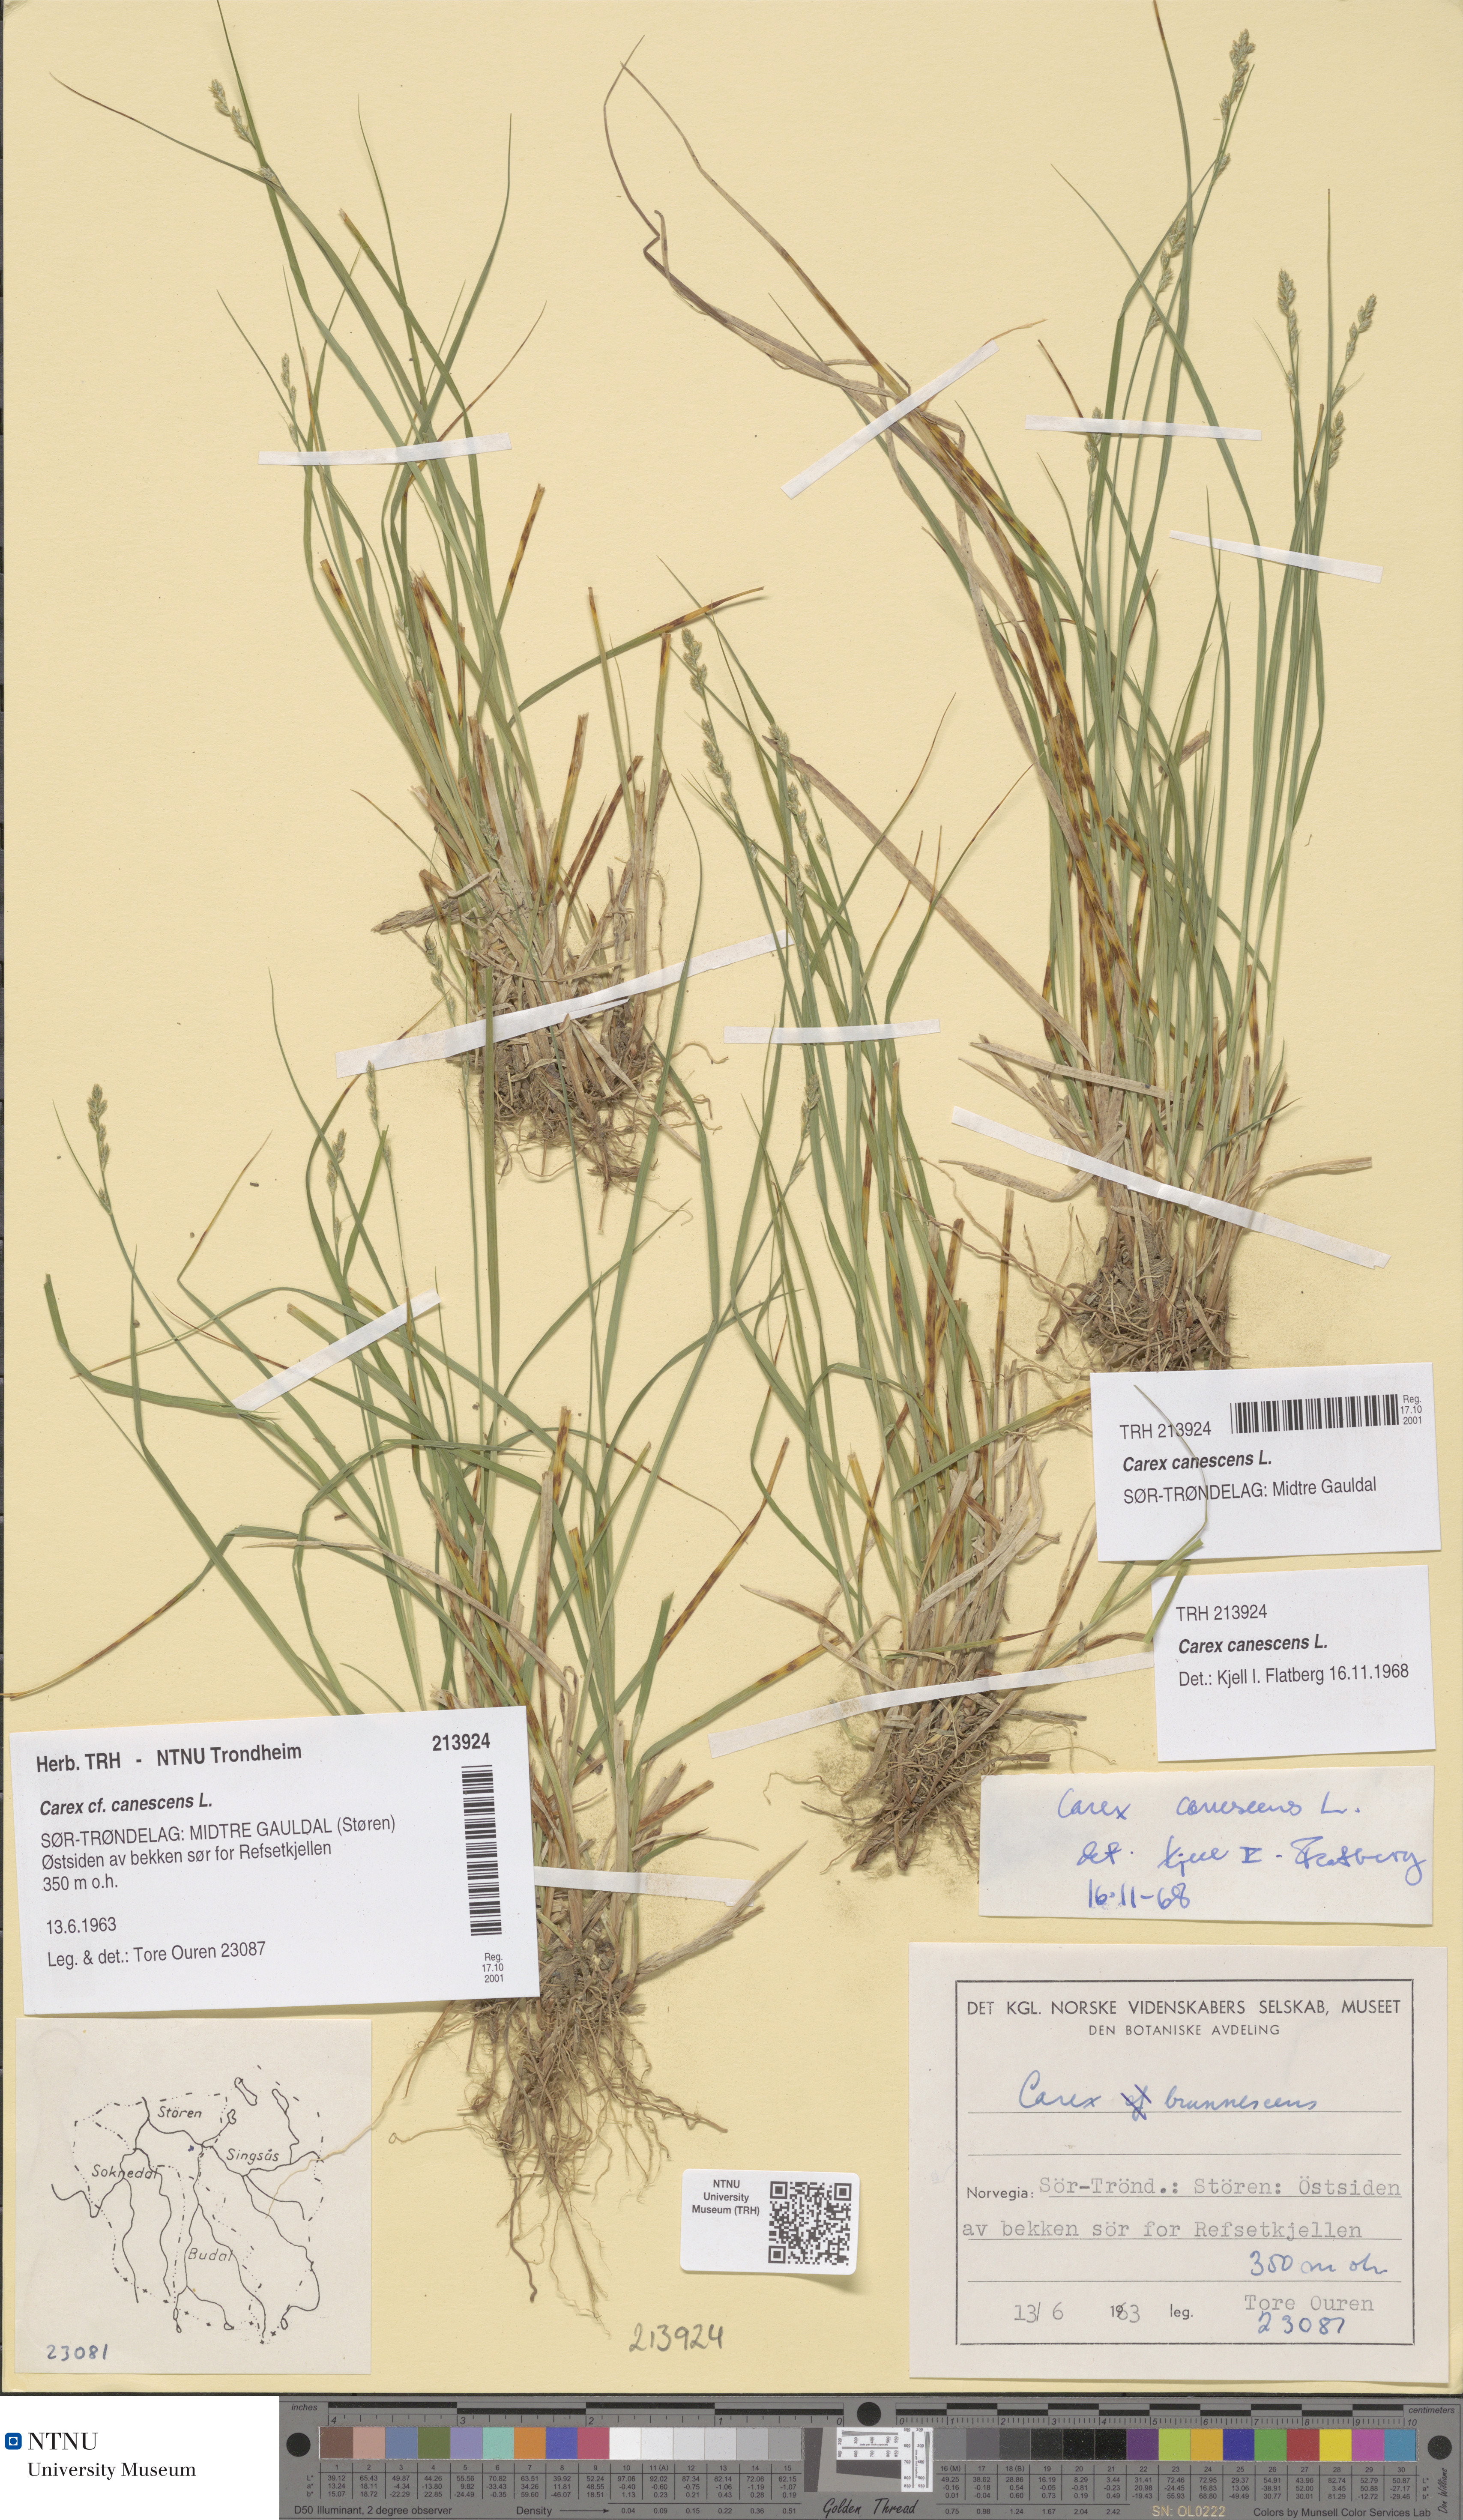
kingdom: Plantae
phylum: Tracheophyta
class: Liliopsida
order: Poales
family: Cyperaceae
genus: Carex
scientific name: Carex canescens
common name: White sedge
